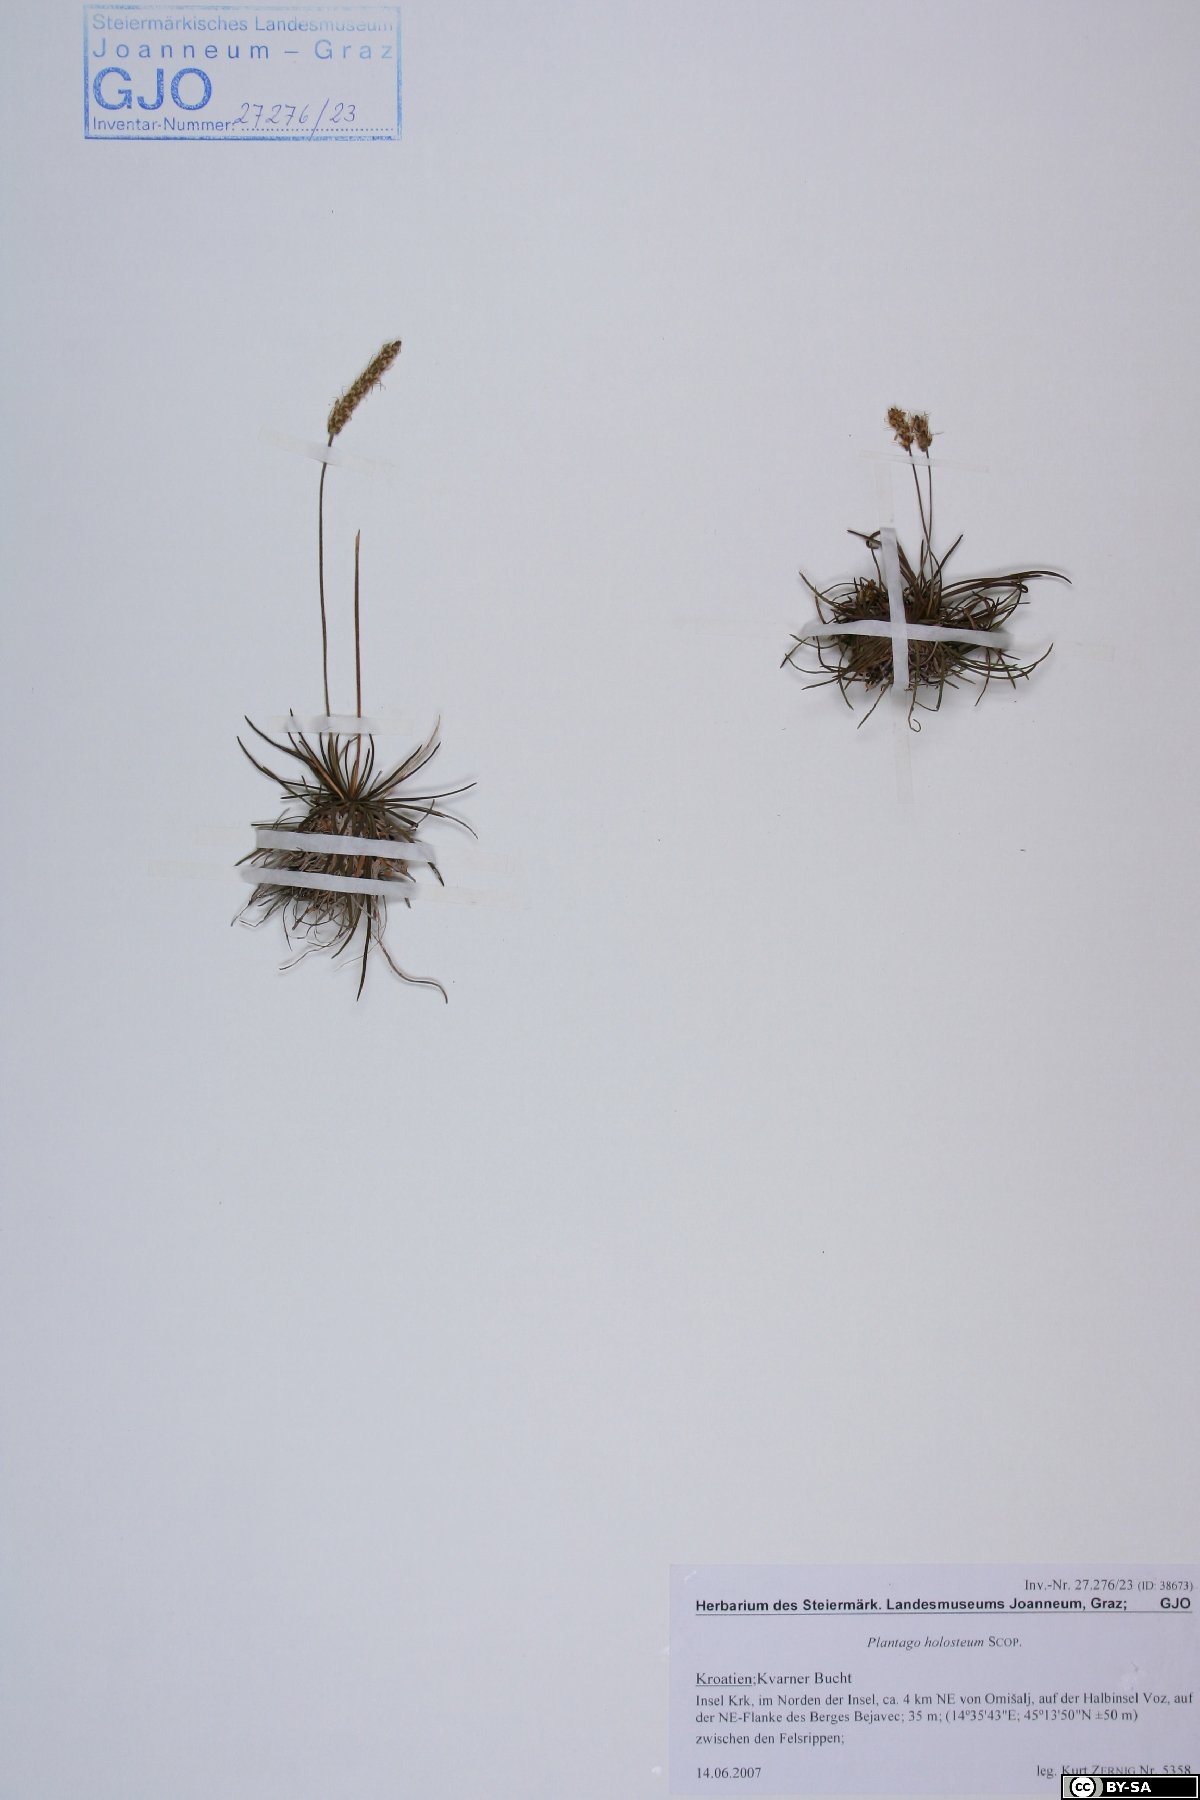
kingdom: Plantae
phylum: Tracheophyta
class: Magnoliopsida
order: Lamiales
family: Plantaginaceae
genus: Plantago
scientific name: Plantago subulata
